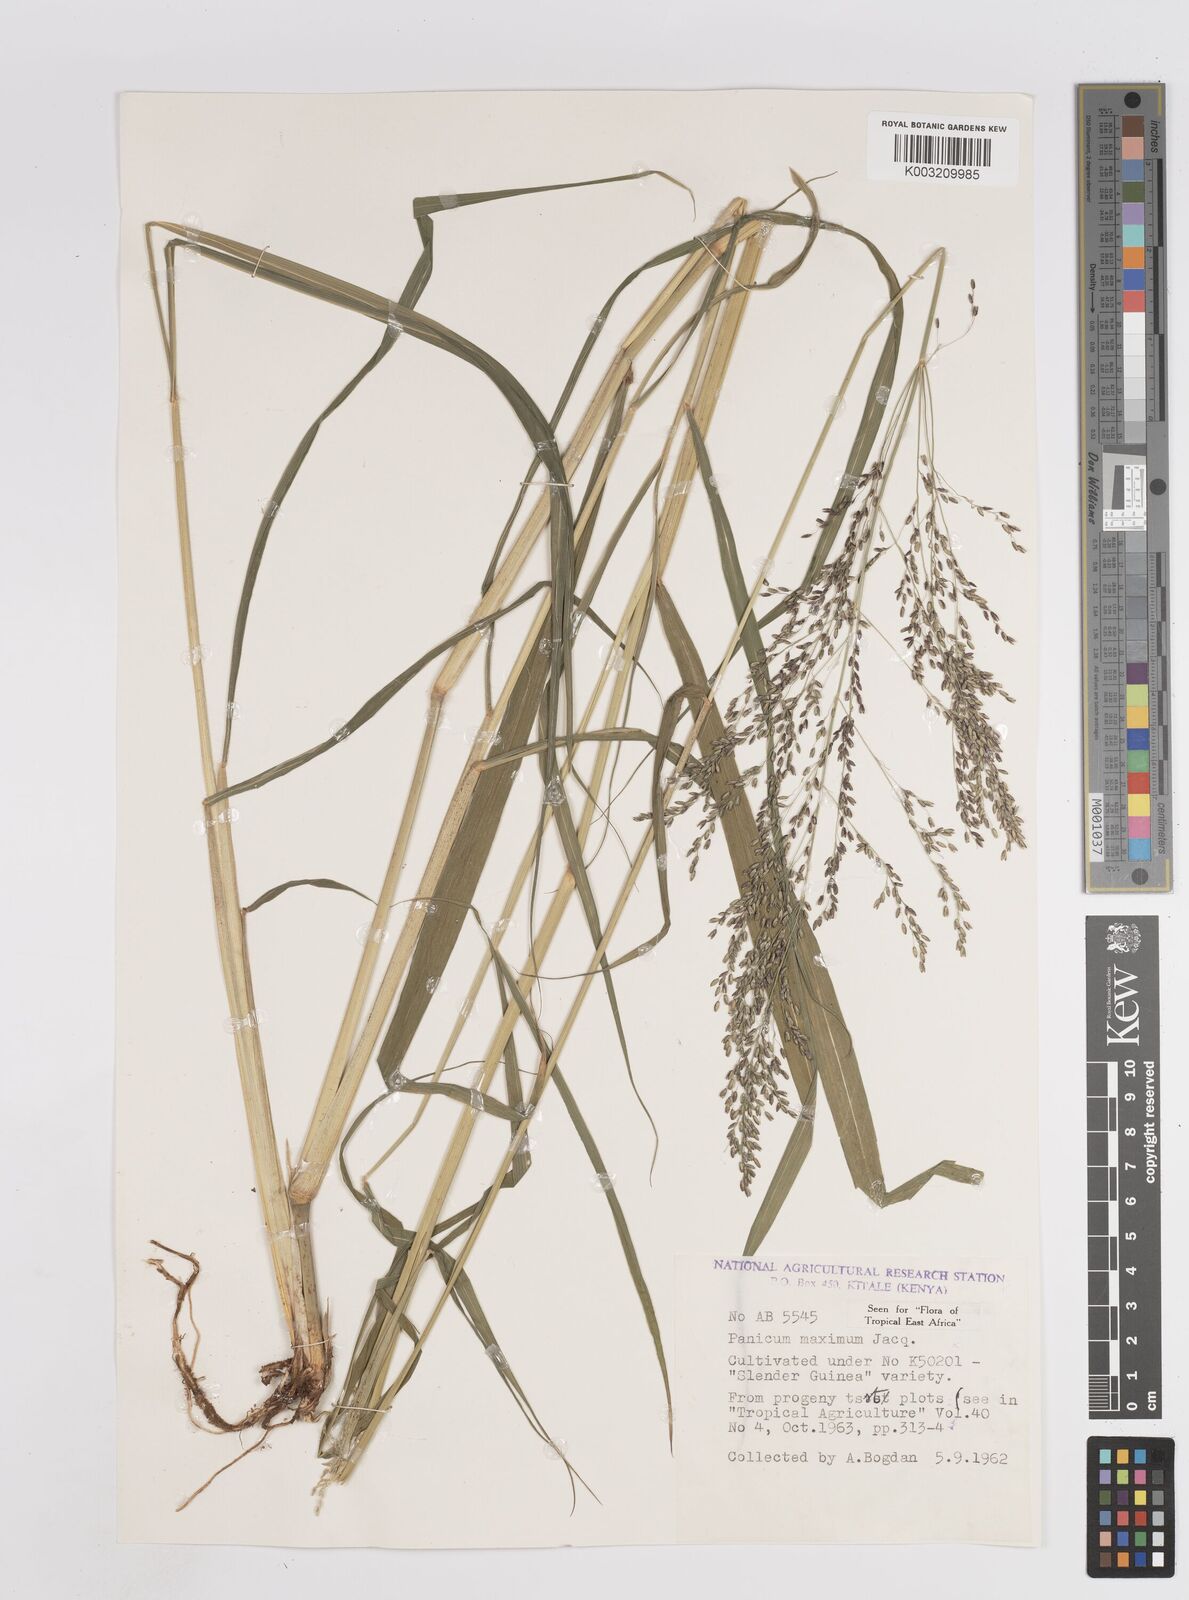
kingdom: Plantae
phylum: Tracheophyta
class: Liliopsida
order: Poales
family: Poaceae
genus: Megathyrsus
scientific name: Megathyrsus maximus
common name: Guineagrass
